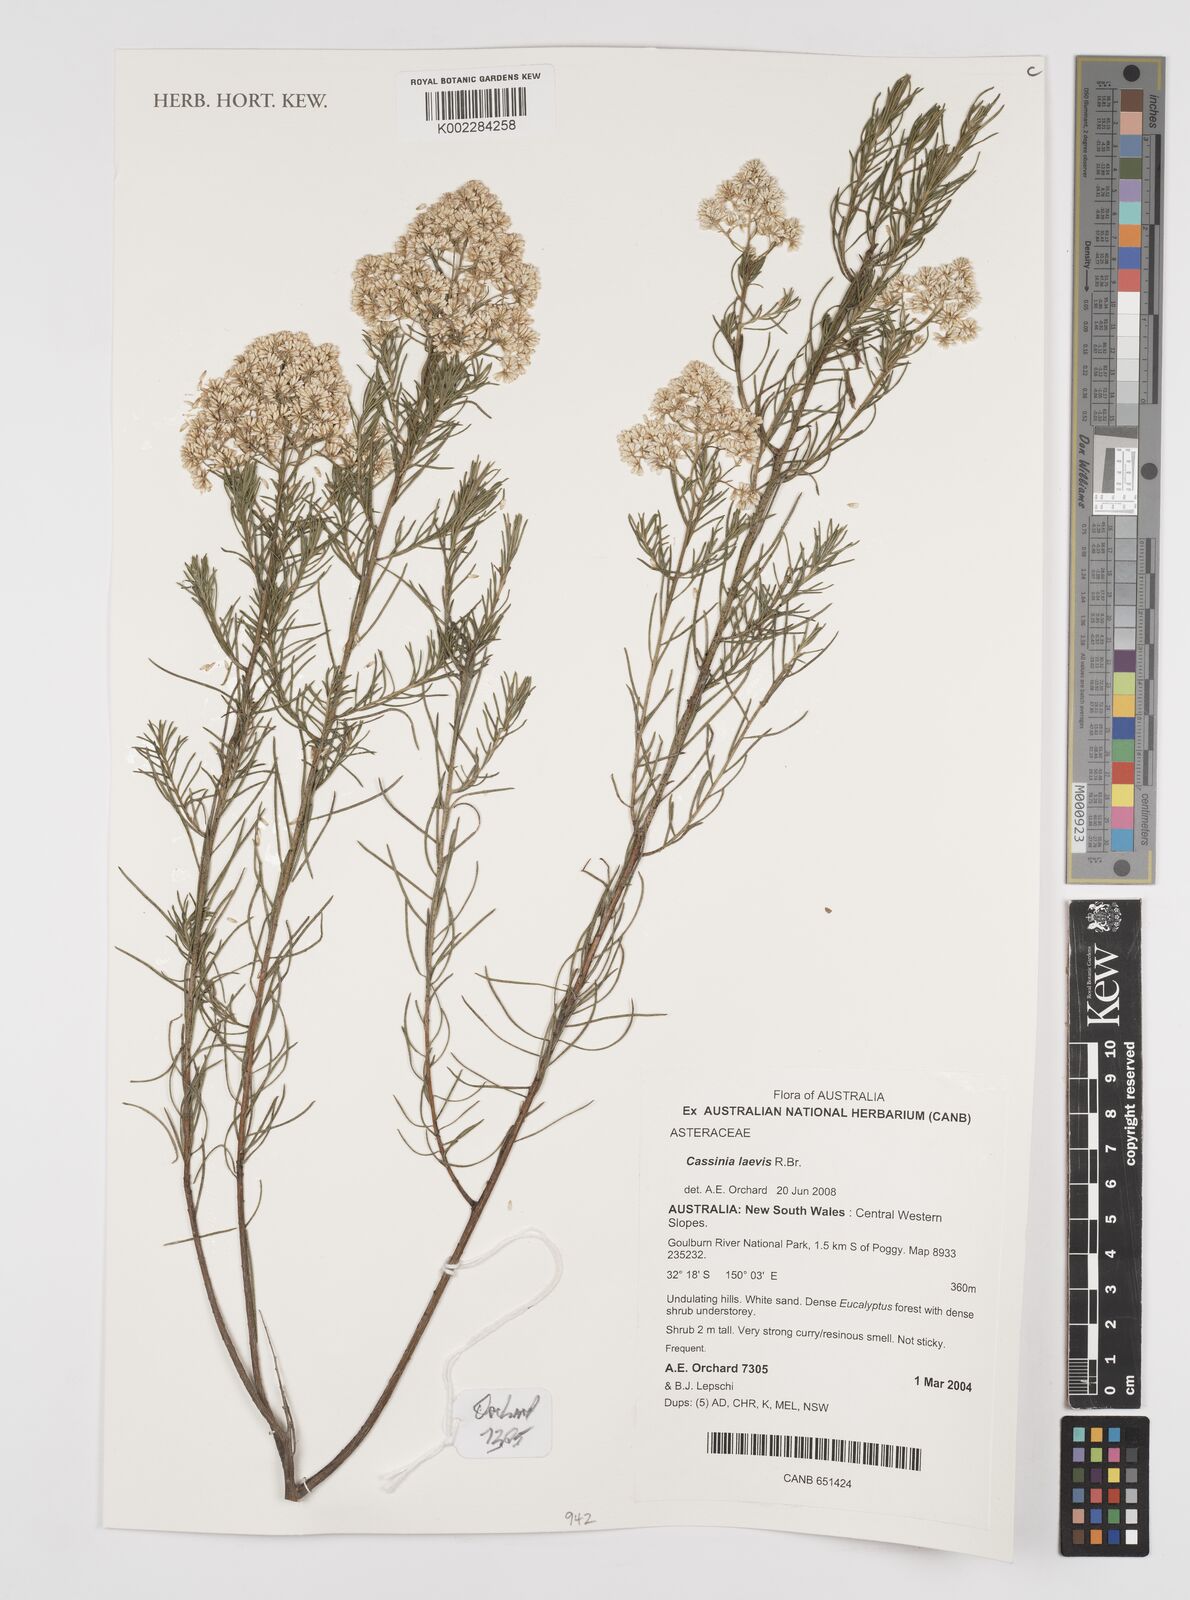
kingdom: Plantae
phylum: Tracheophyta
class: Magnoliopsida
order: Asterales
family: Asteraceae
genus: Cassinia
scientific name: Cassinia laevis
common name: Coughbush
